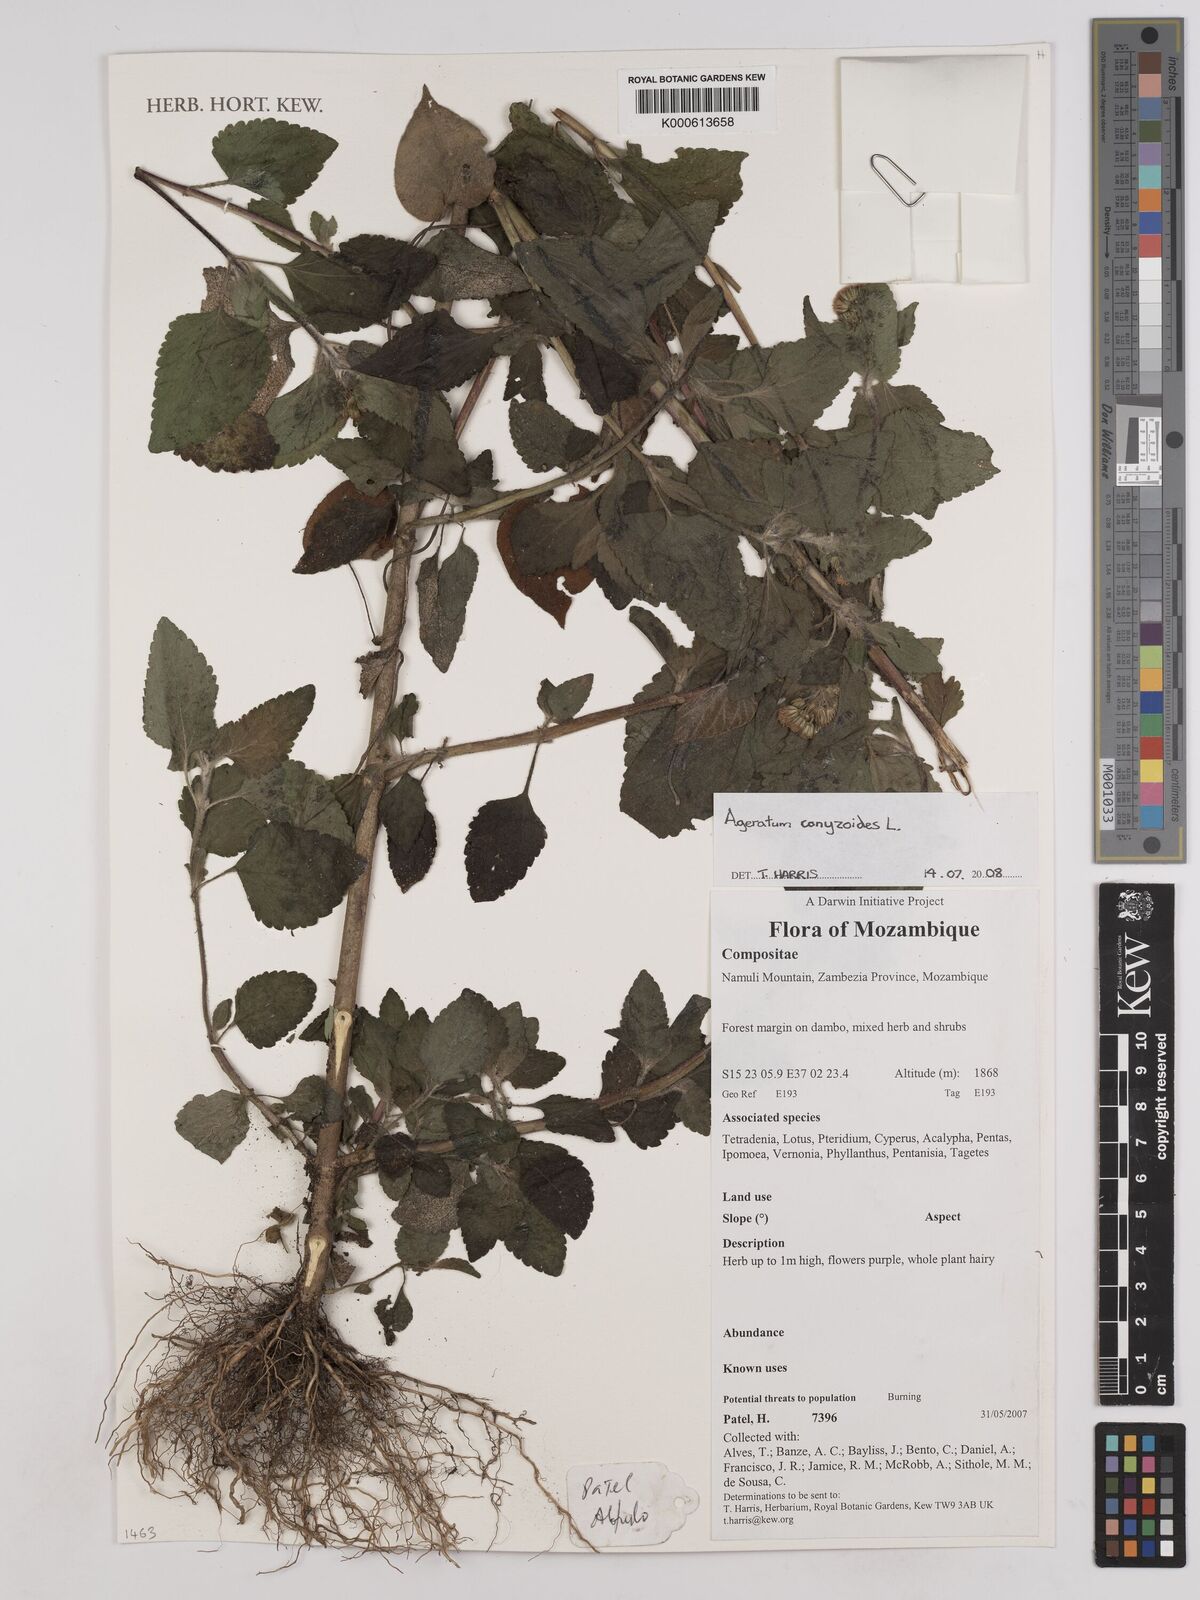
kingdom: Plantae
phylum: Tracheophyta
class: Magnoliopsida
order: Asterales
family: Asteraceae
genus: Ageratum
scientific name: Ageratum conyzoides
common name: Tropical whiteweed
